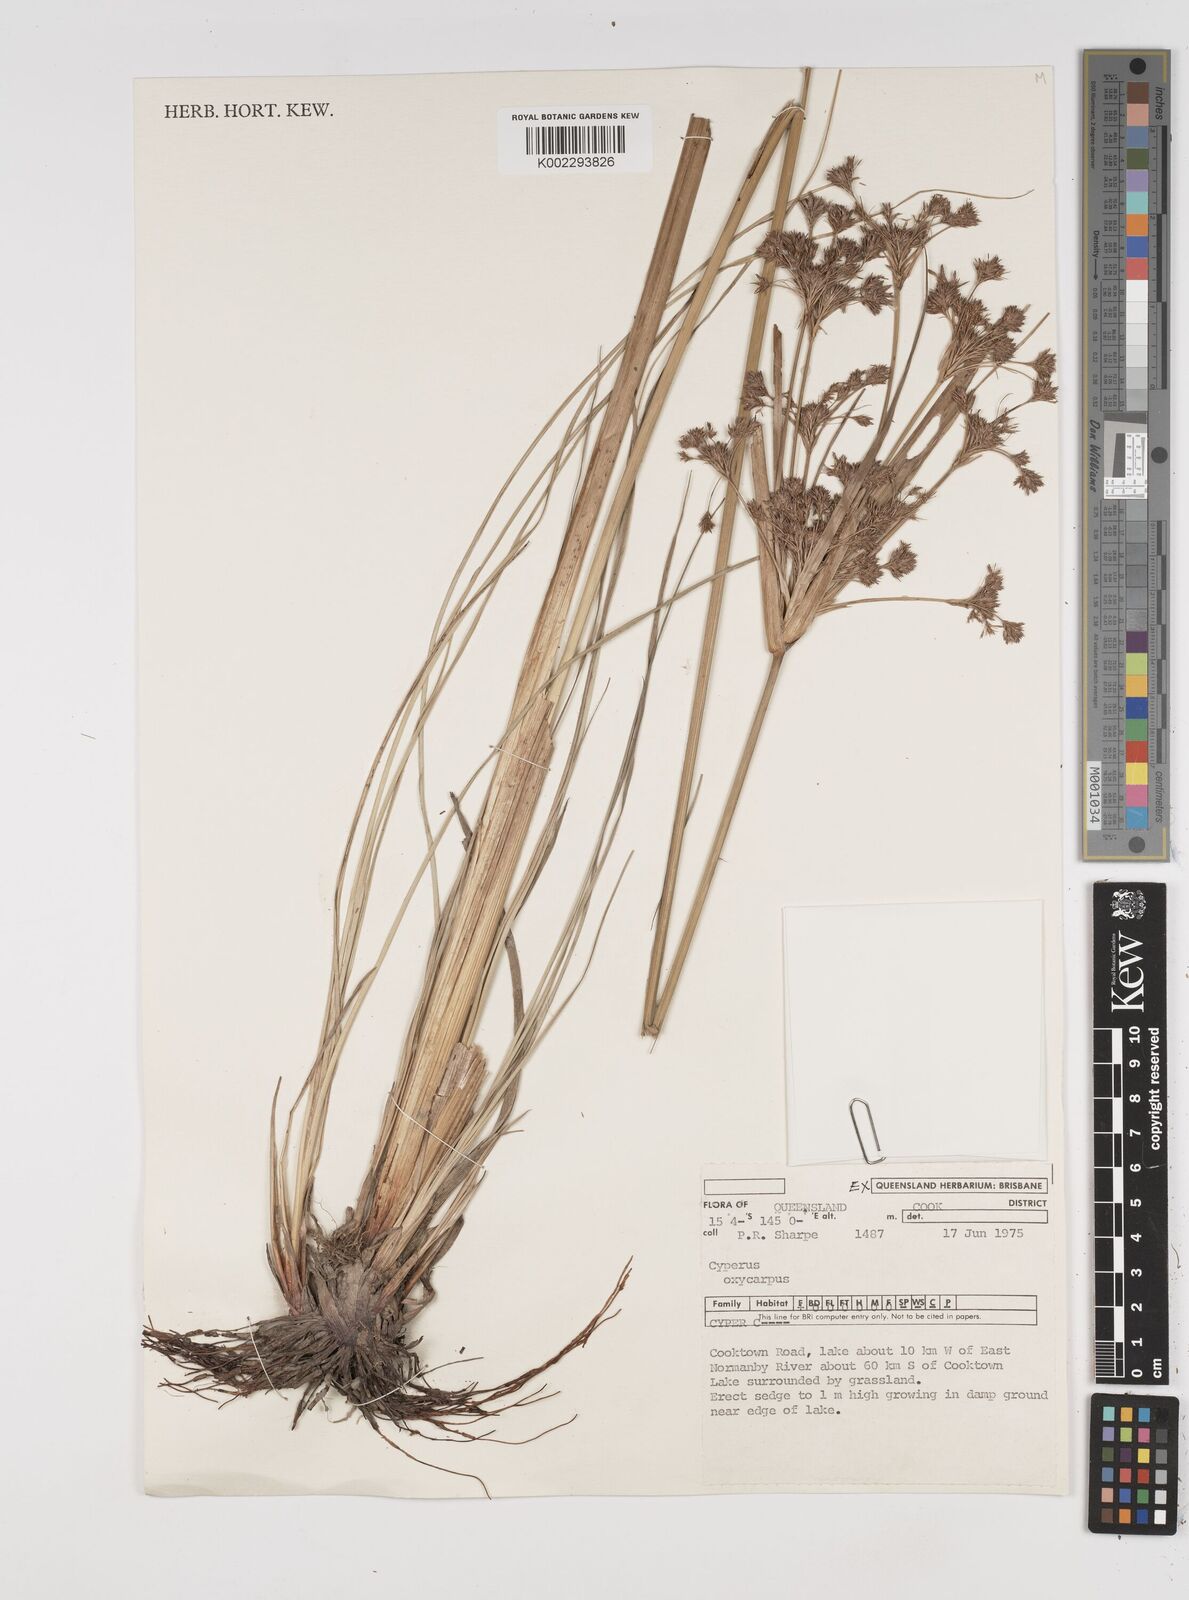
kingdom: Plantae
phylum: Tracheophyta
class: Liliopsida
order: Poales
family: Cyperaceae
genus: Cyperus
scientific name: Cyperus oxycarpus
